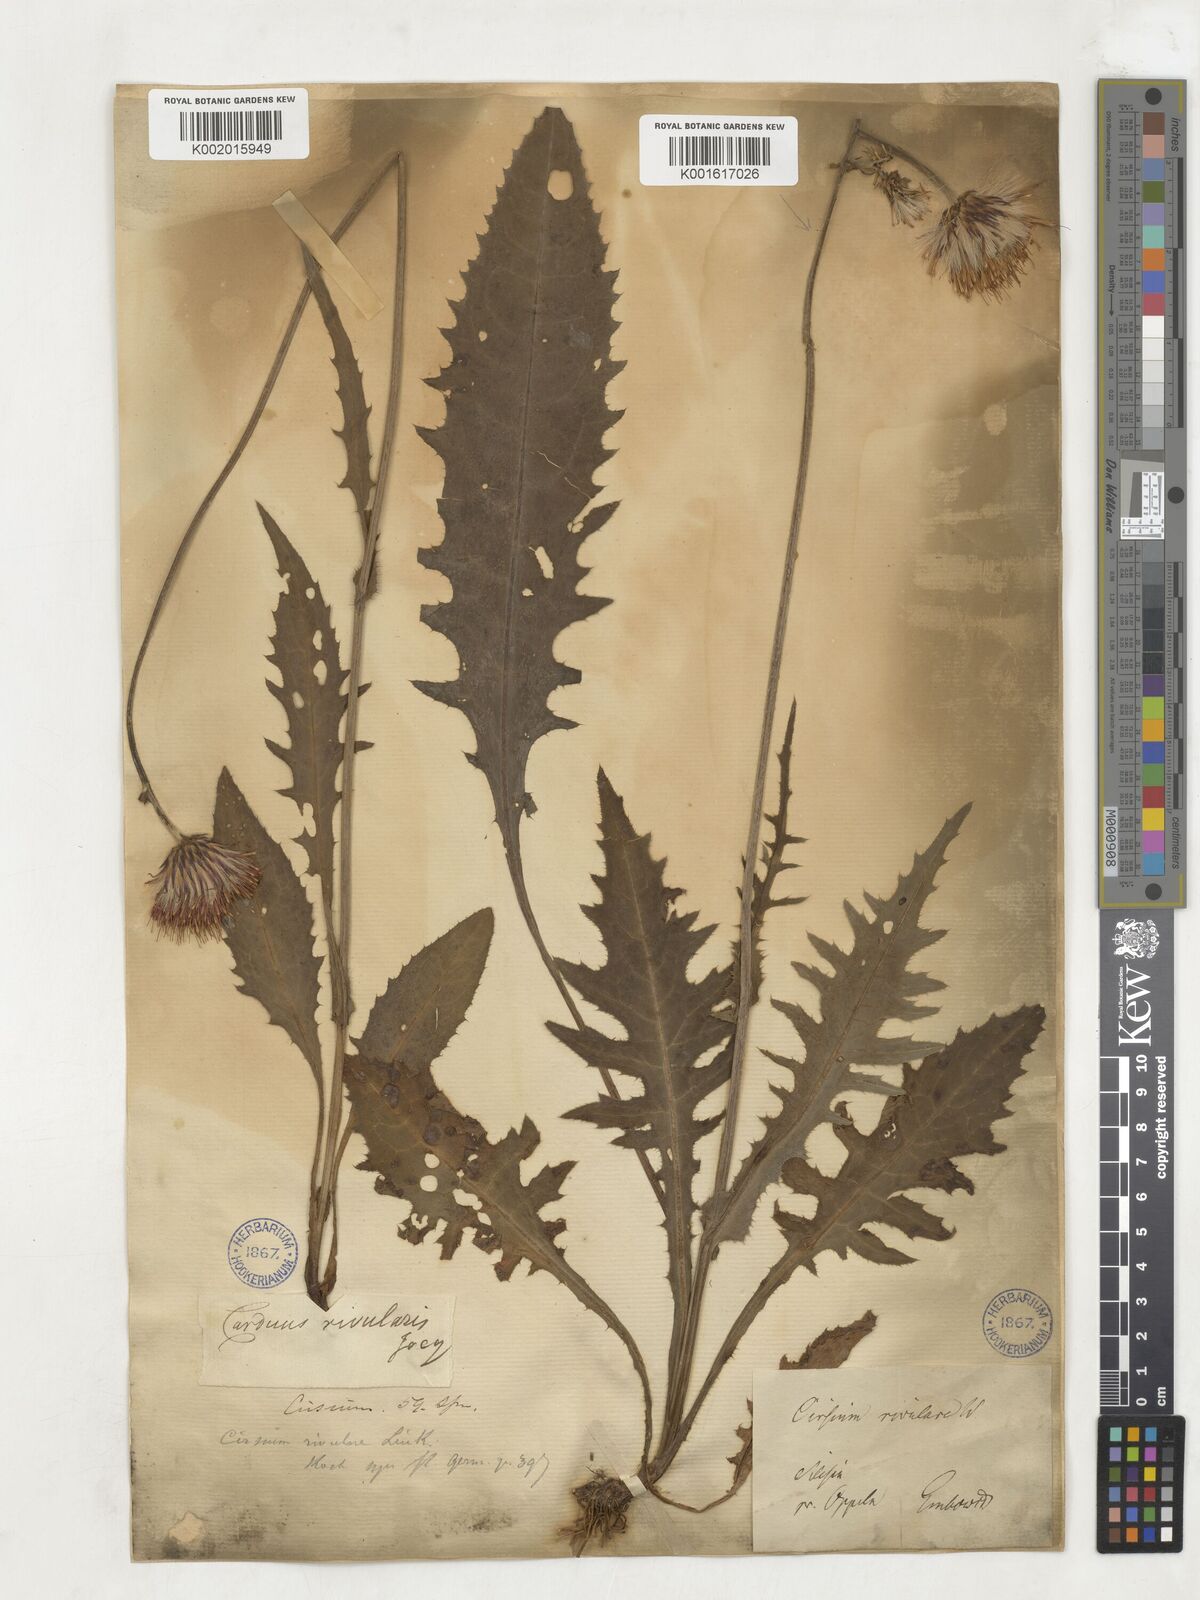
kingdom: Plantae
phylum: Tracheophyta
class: Magnoliopsida
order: Asterales
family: Asteraceae
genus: Cirsium
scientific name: Cirsium rivulare
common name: Brook thistle
